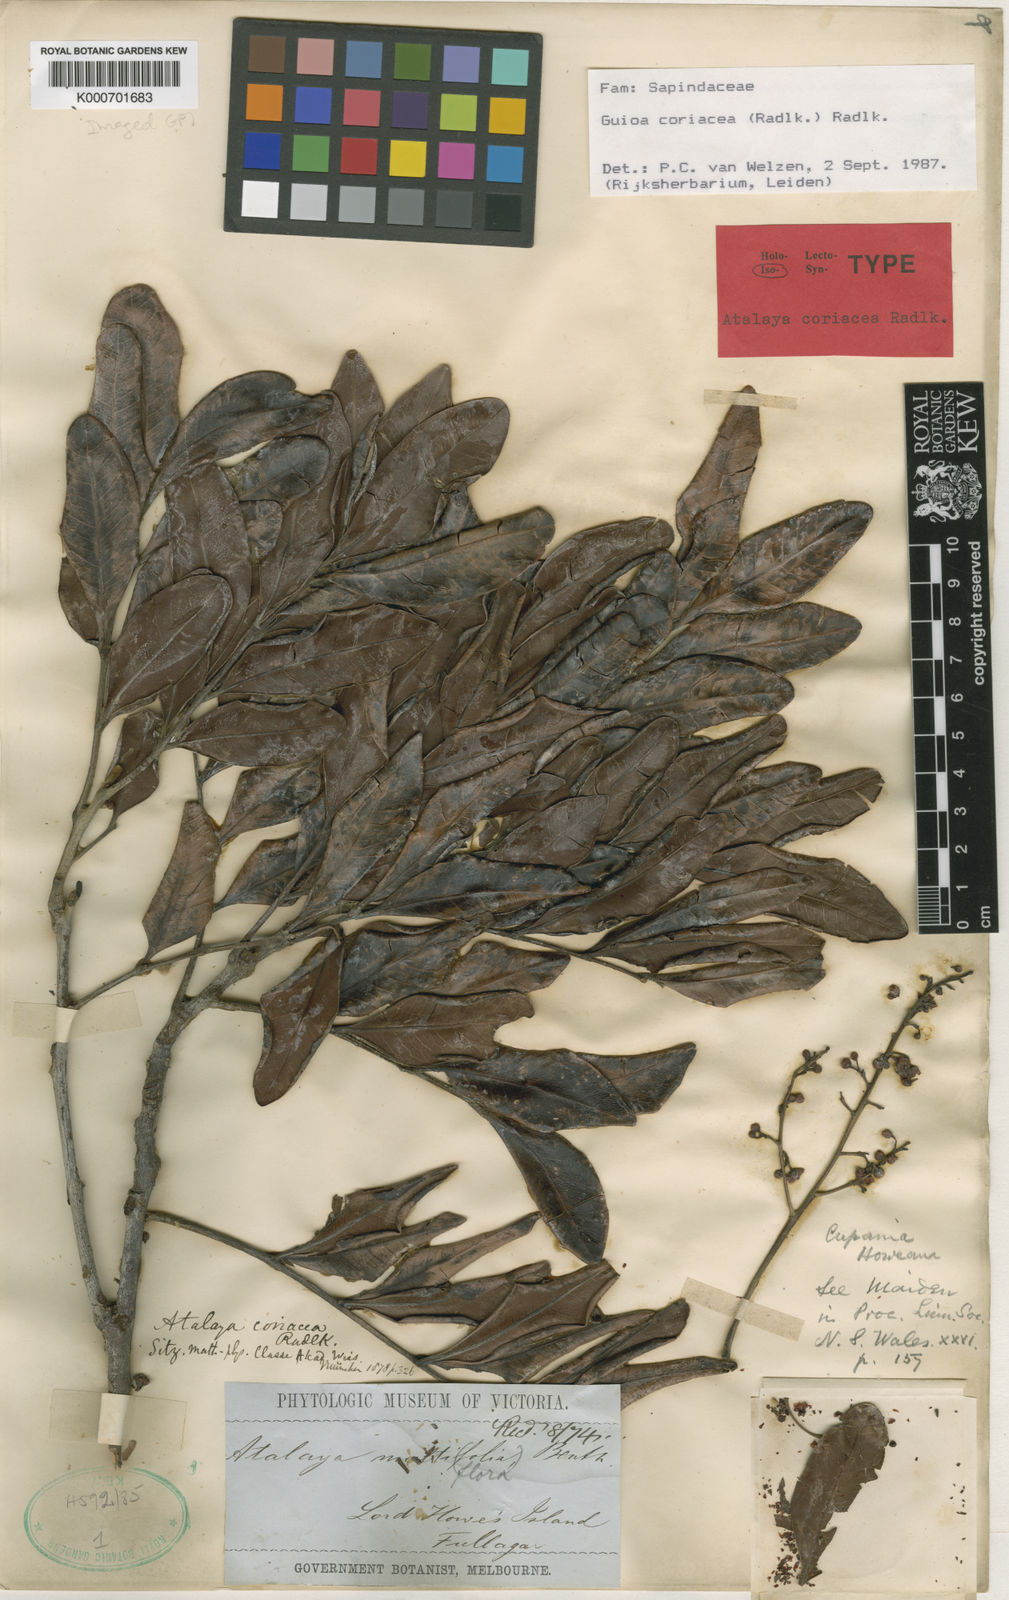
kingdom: Plantae
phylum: Tracheophyta
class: Magnoliopsida
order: Sapindales
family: Sapindaceae
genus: Guioa
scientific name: Guioa coriacea
